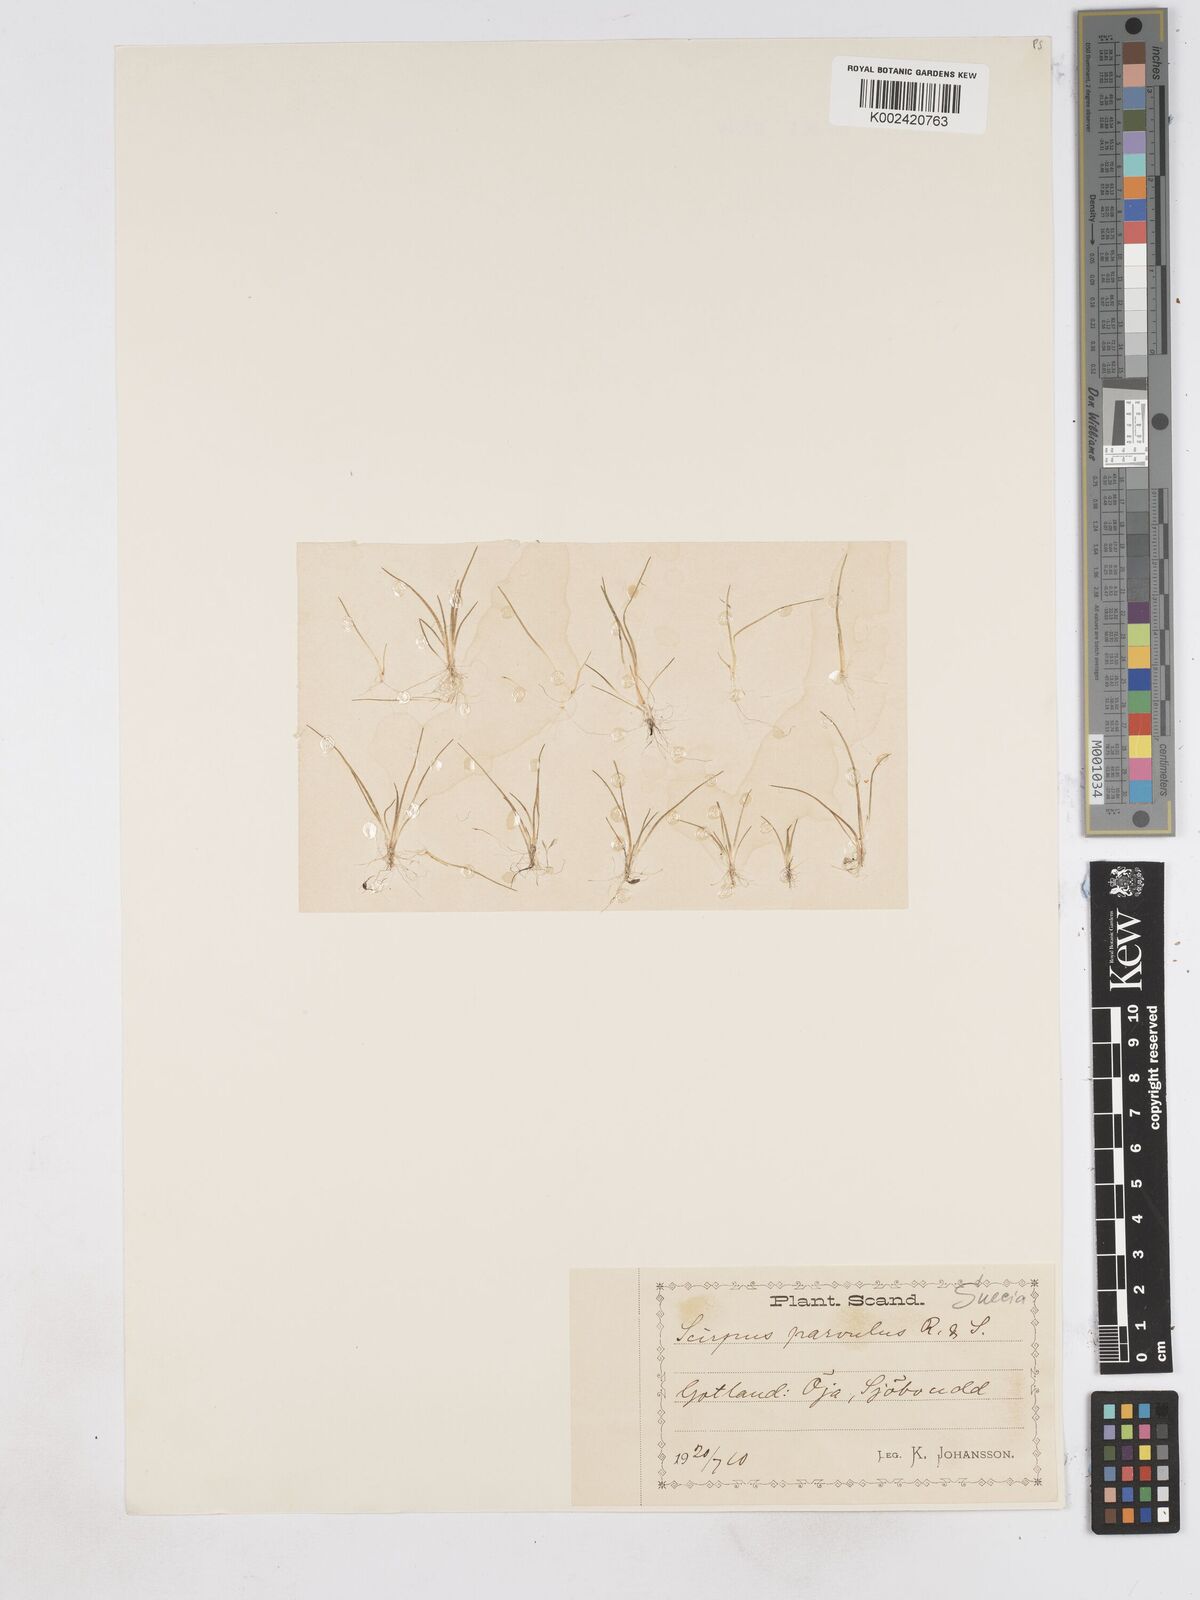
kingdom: Plantae
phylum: Tracheophyta
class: Liliopsida
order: Poales
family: Cyperaceae
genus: Eleocharis
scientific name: Eleocharis parvula
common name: Dwarf spike-rush
